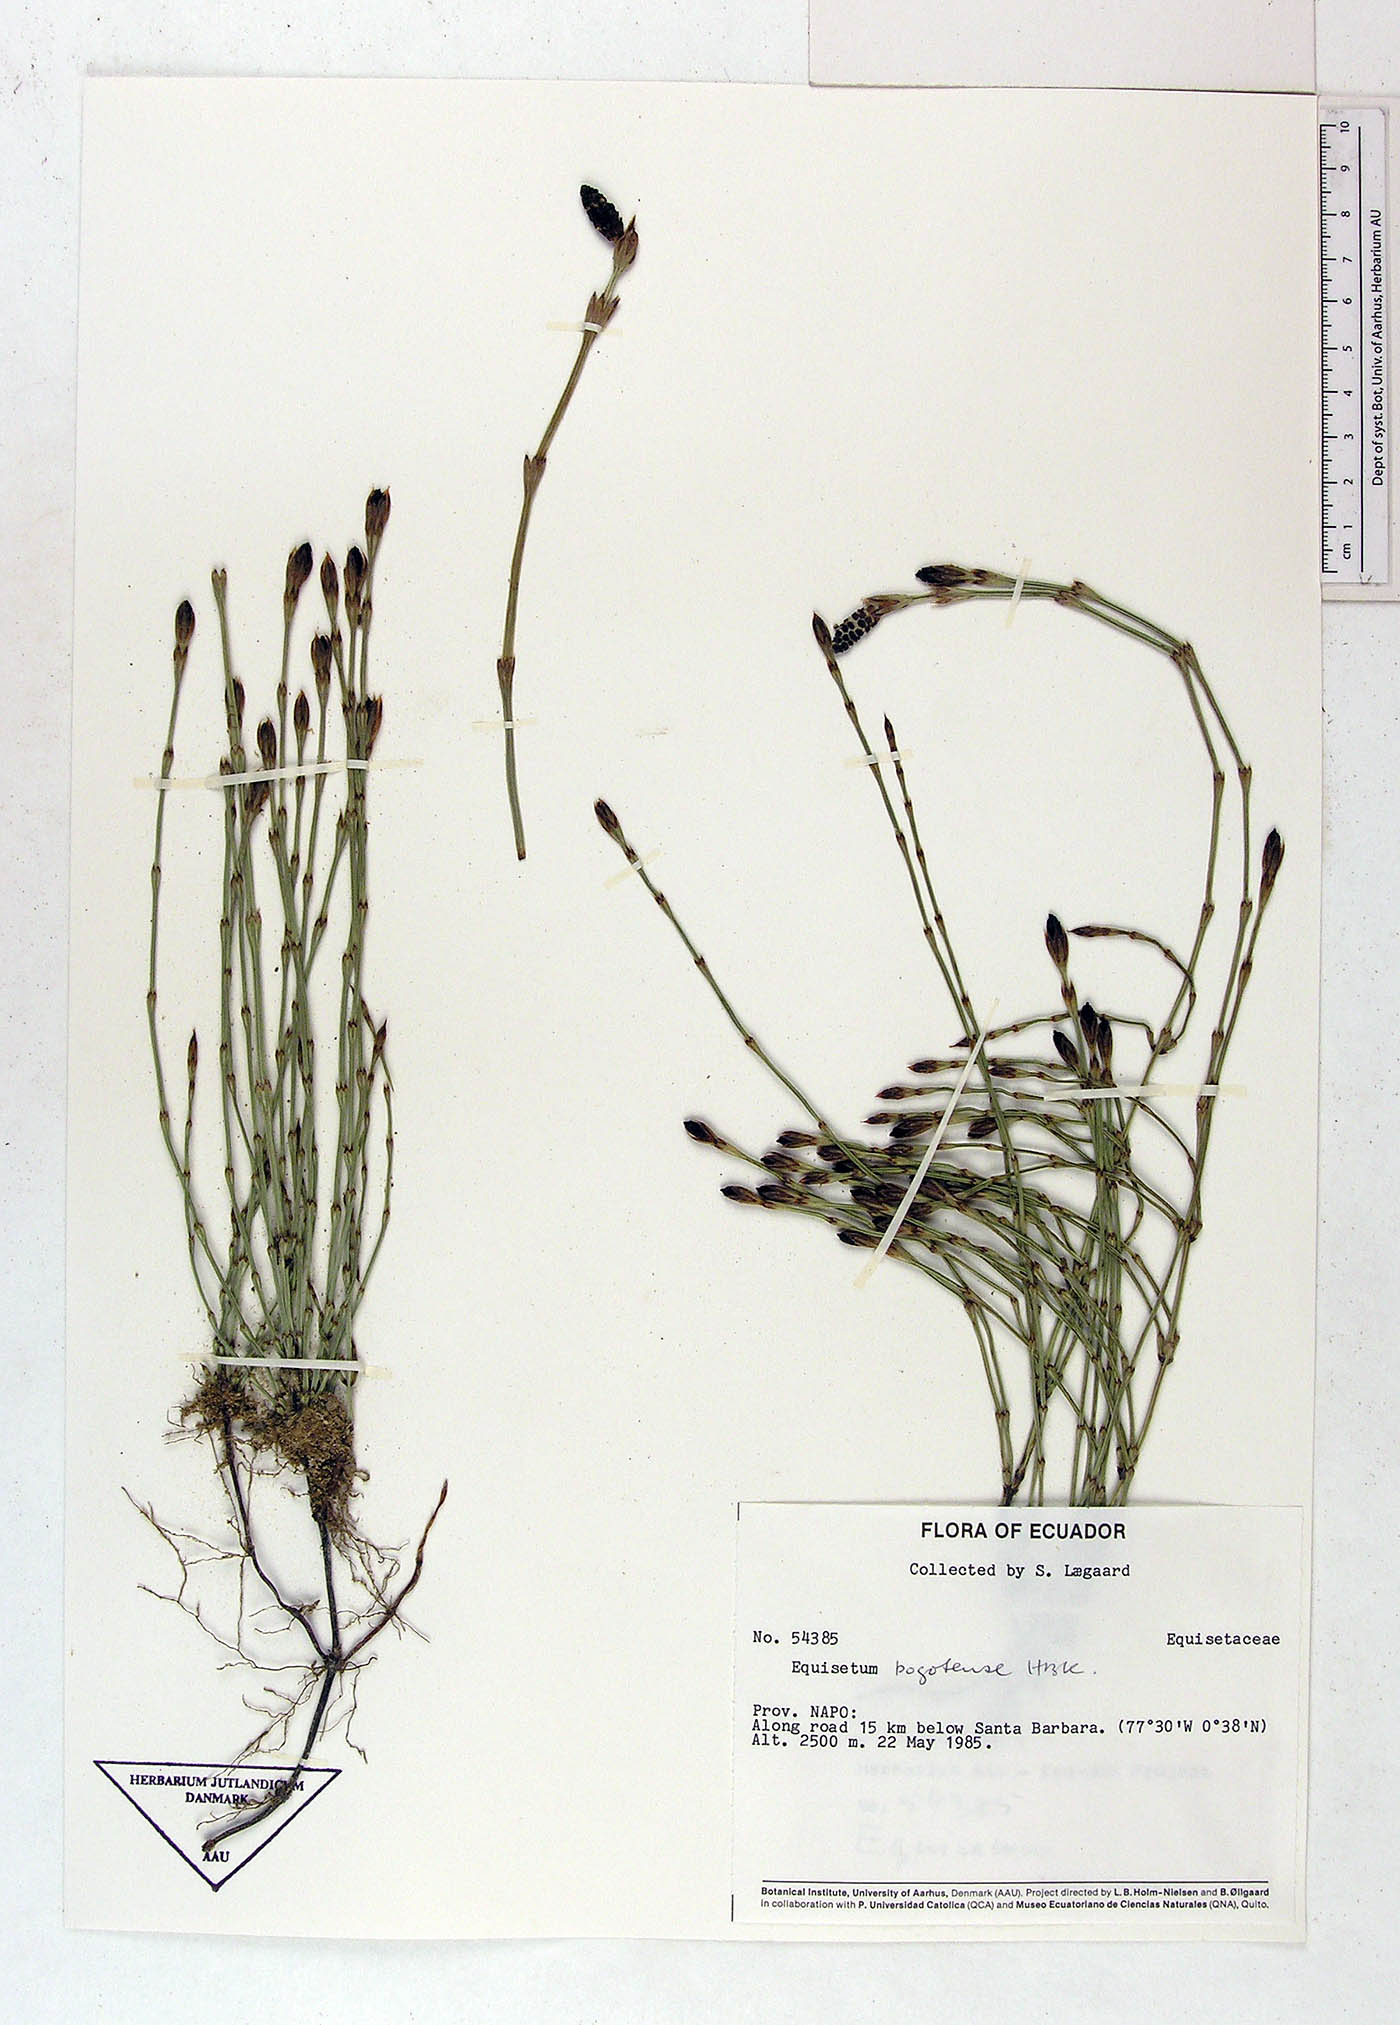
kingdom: Plantae
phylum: Tracheophyta
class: Polypodiopsida
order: Equisetales
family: Equisetaceae
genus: Equisetum
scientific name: Equisetum
